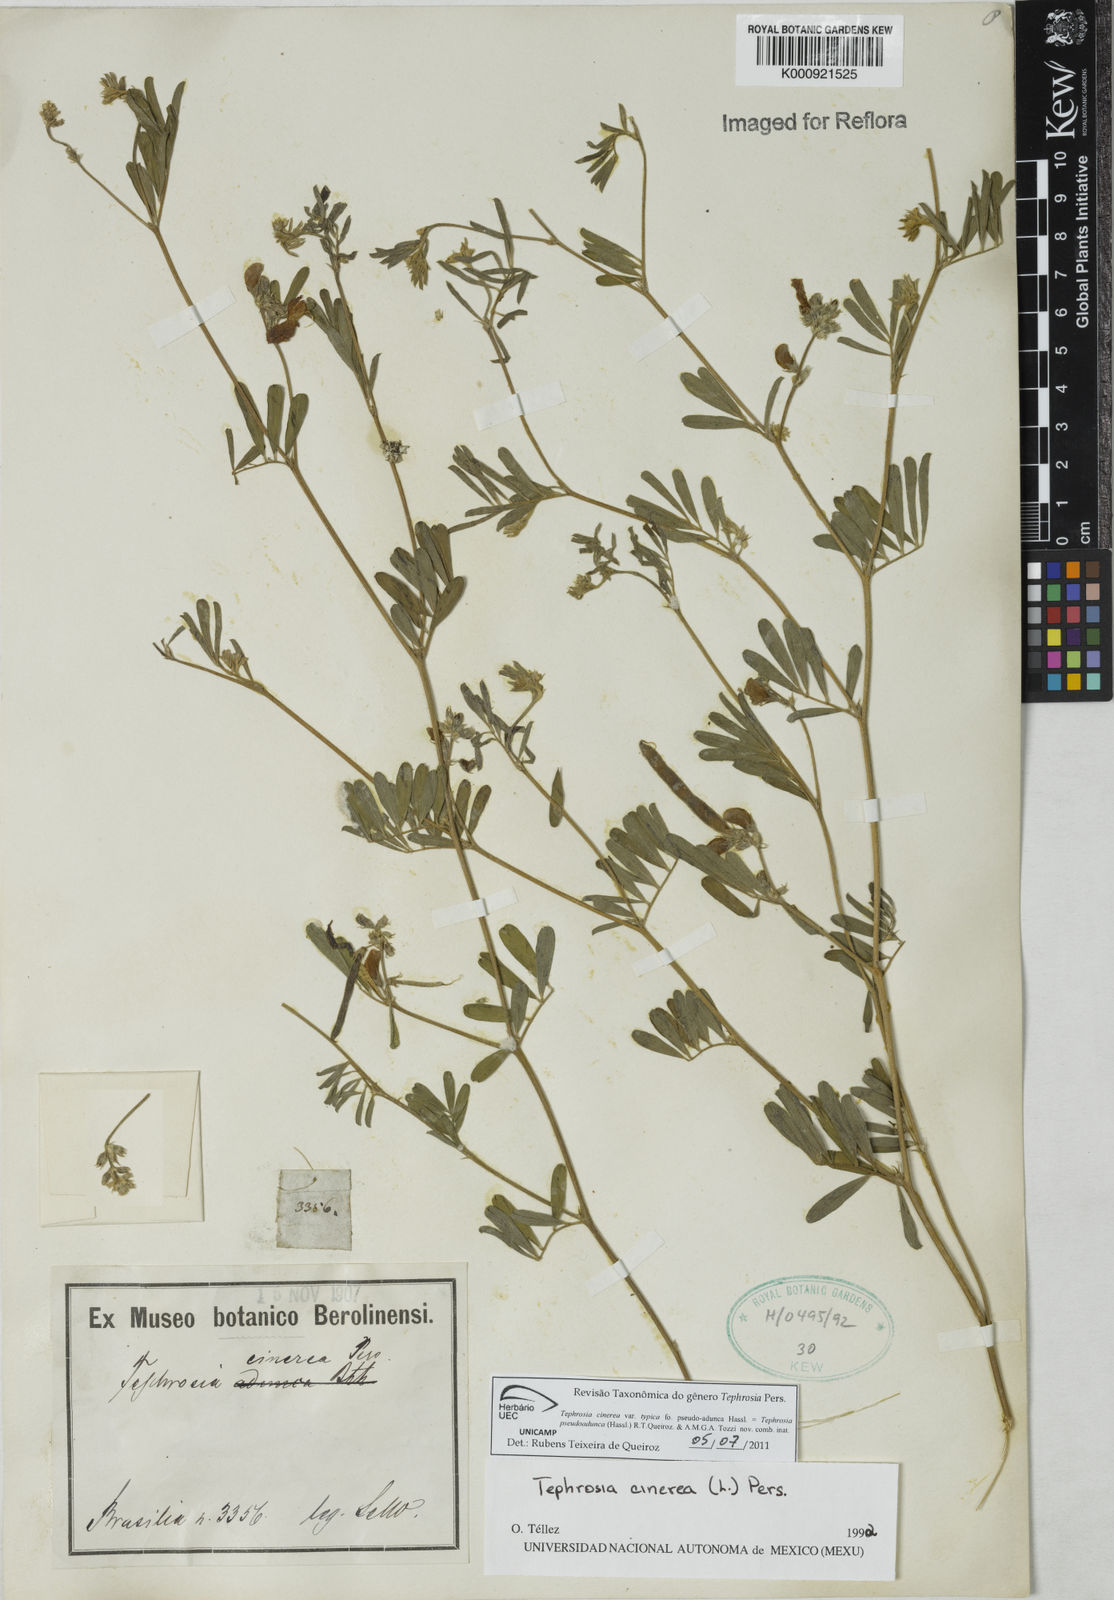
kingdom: Plantae
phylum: Tracheophyta
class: Magnoliopsida
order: Fabales
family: Fabaceae
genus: Tephrosia
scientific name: Tephrosia
